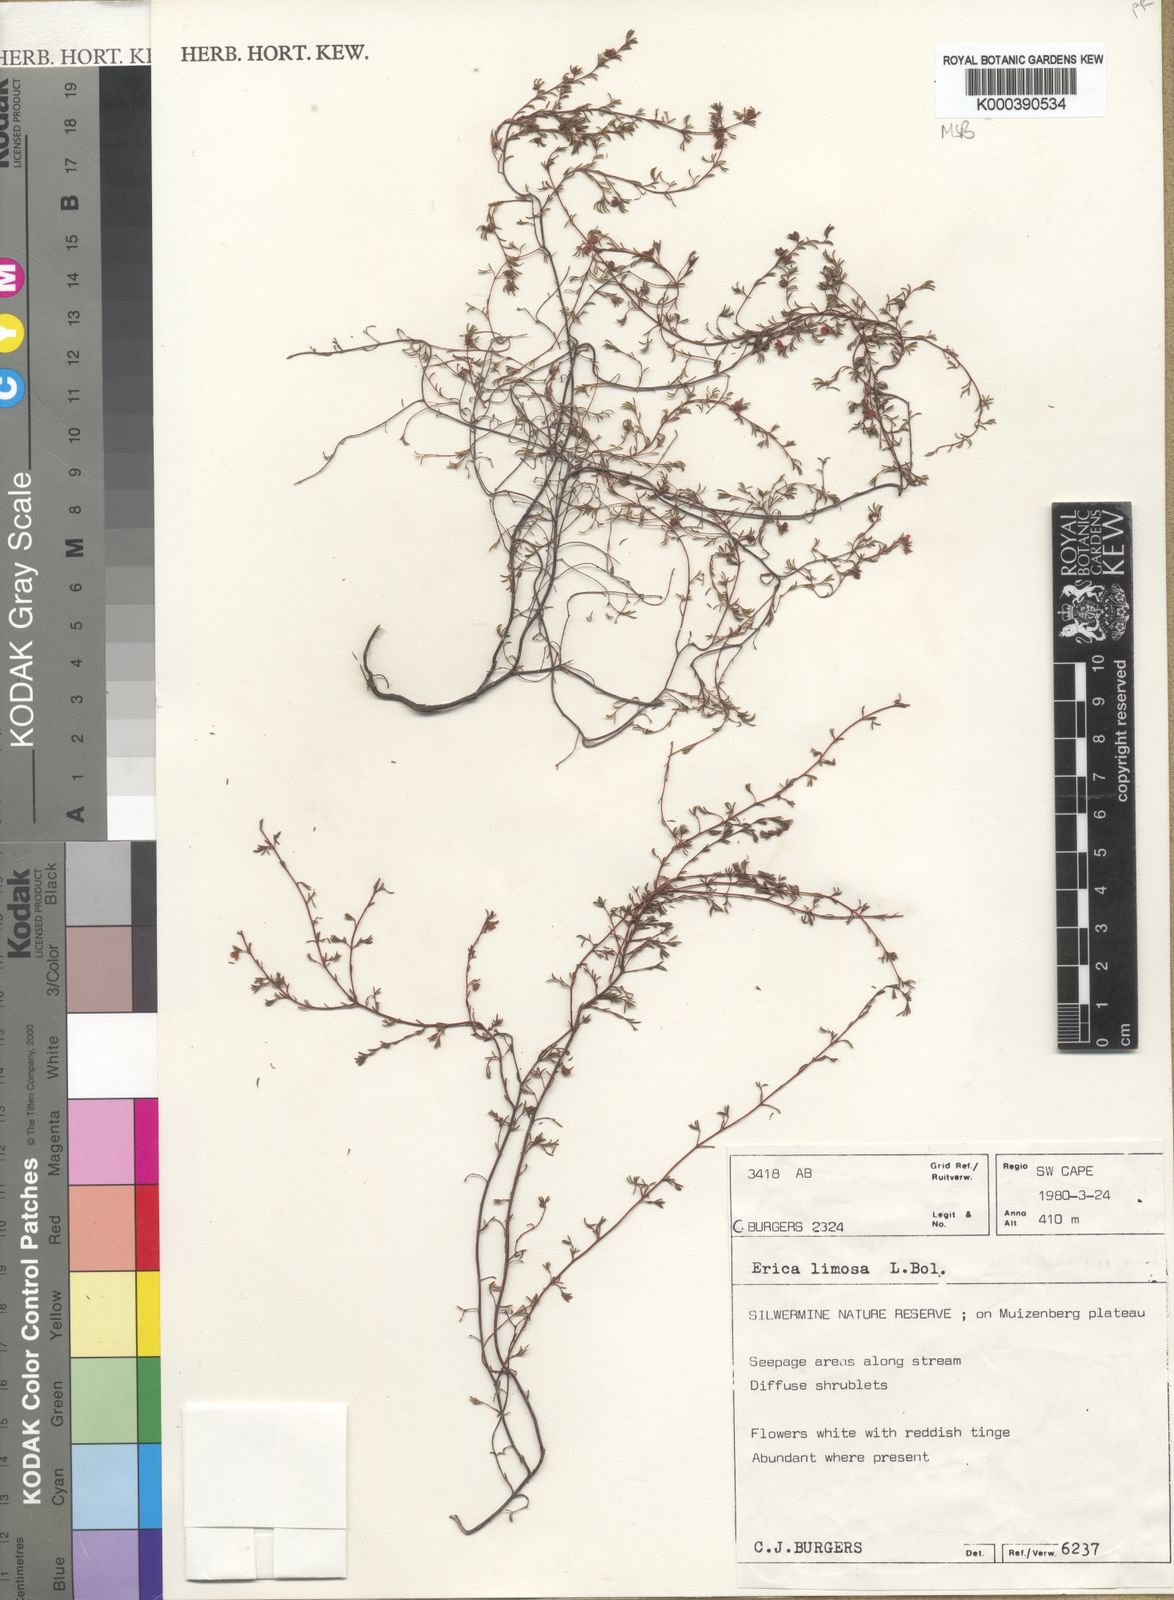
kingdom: Plantae
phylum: Tracheophyta
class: Magnoliopsida
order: Ericales
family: Ericaceae
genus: Erica
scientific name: Erica limosa
